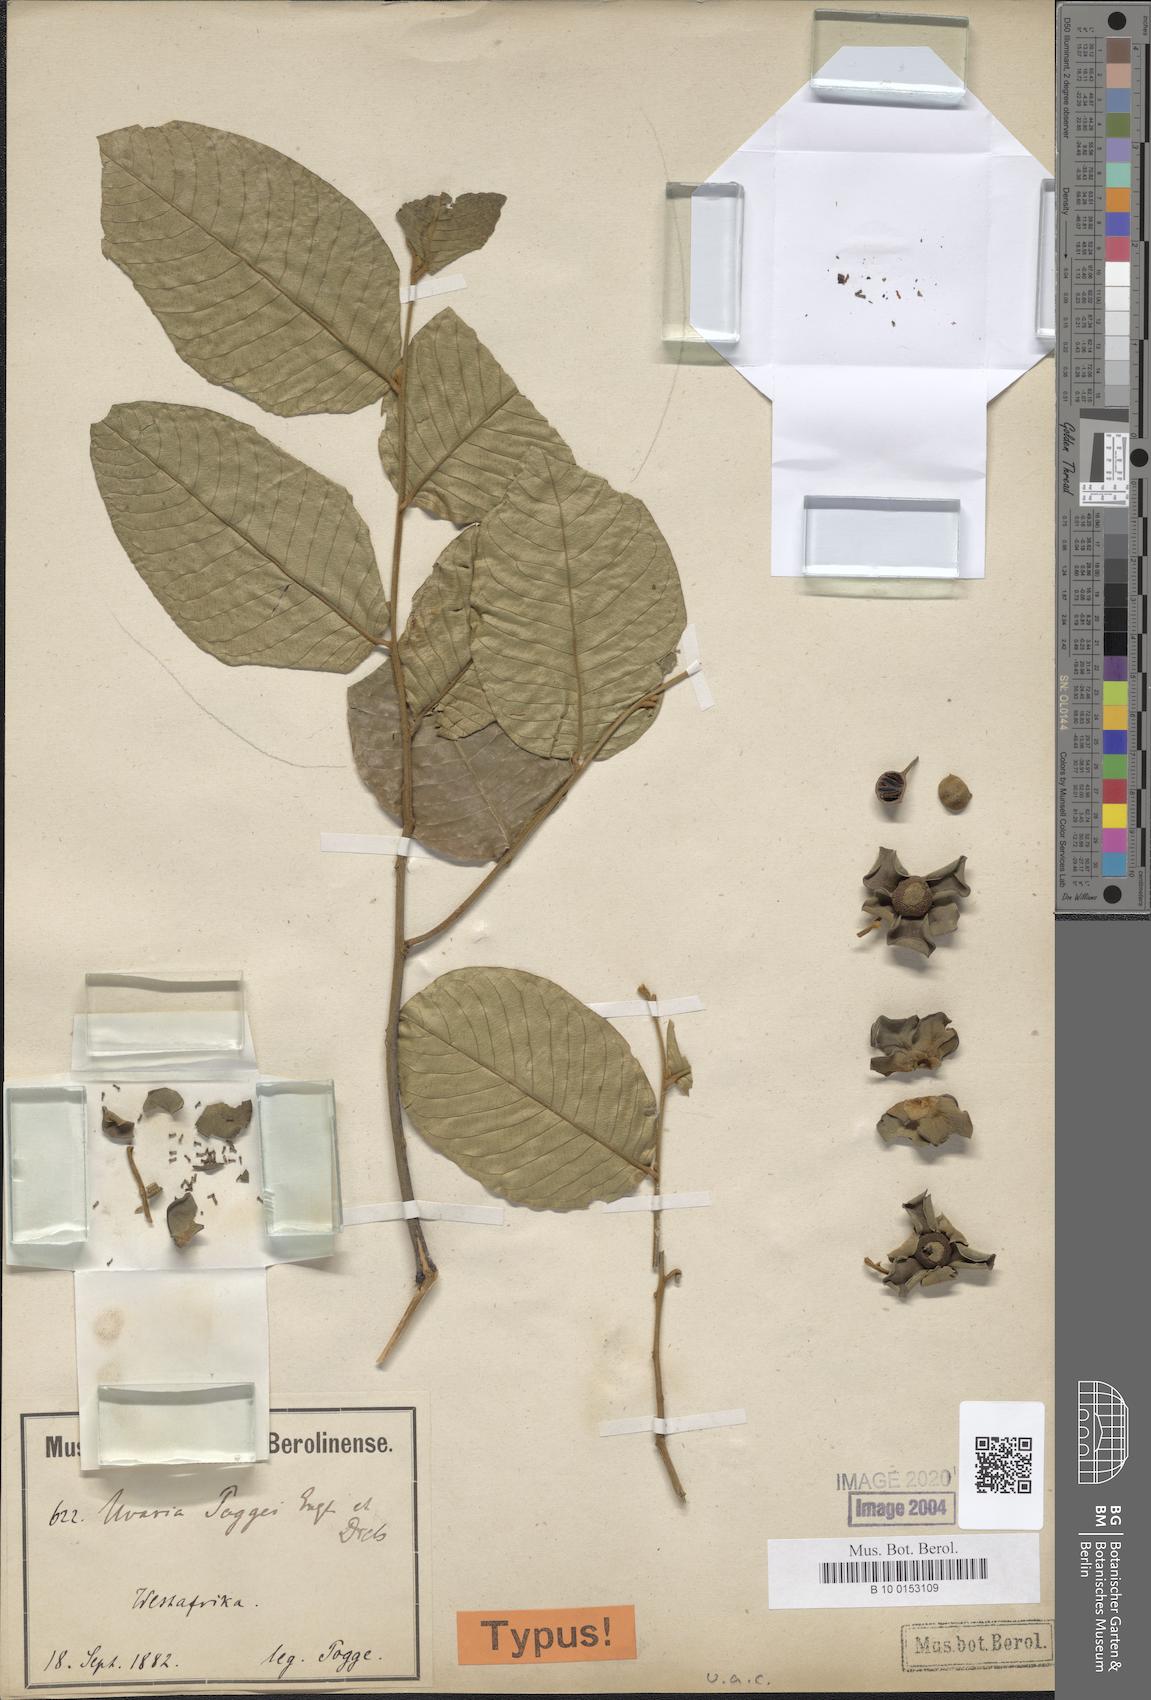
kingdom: Plantae
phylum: Tracheophyta
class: Magnoliopsida
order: Magnoliales
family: Annonaceae
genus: Uvaria
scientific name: Uvaria poggei
